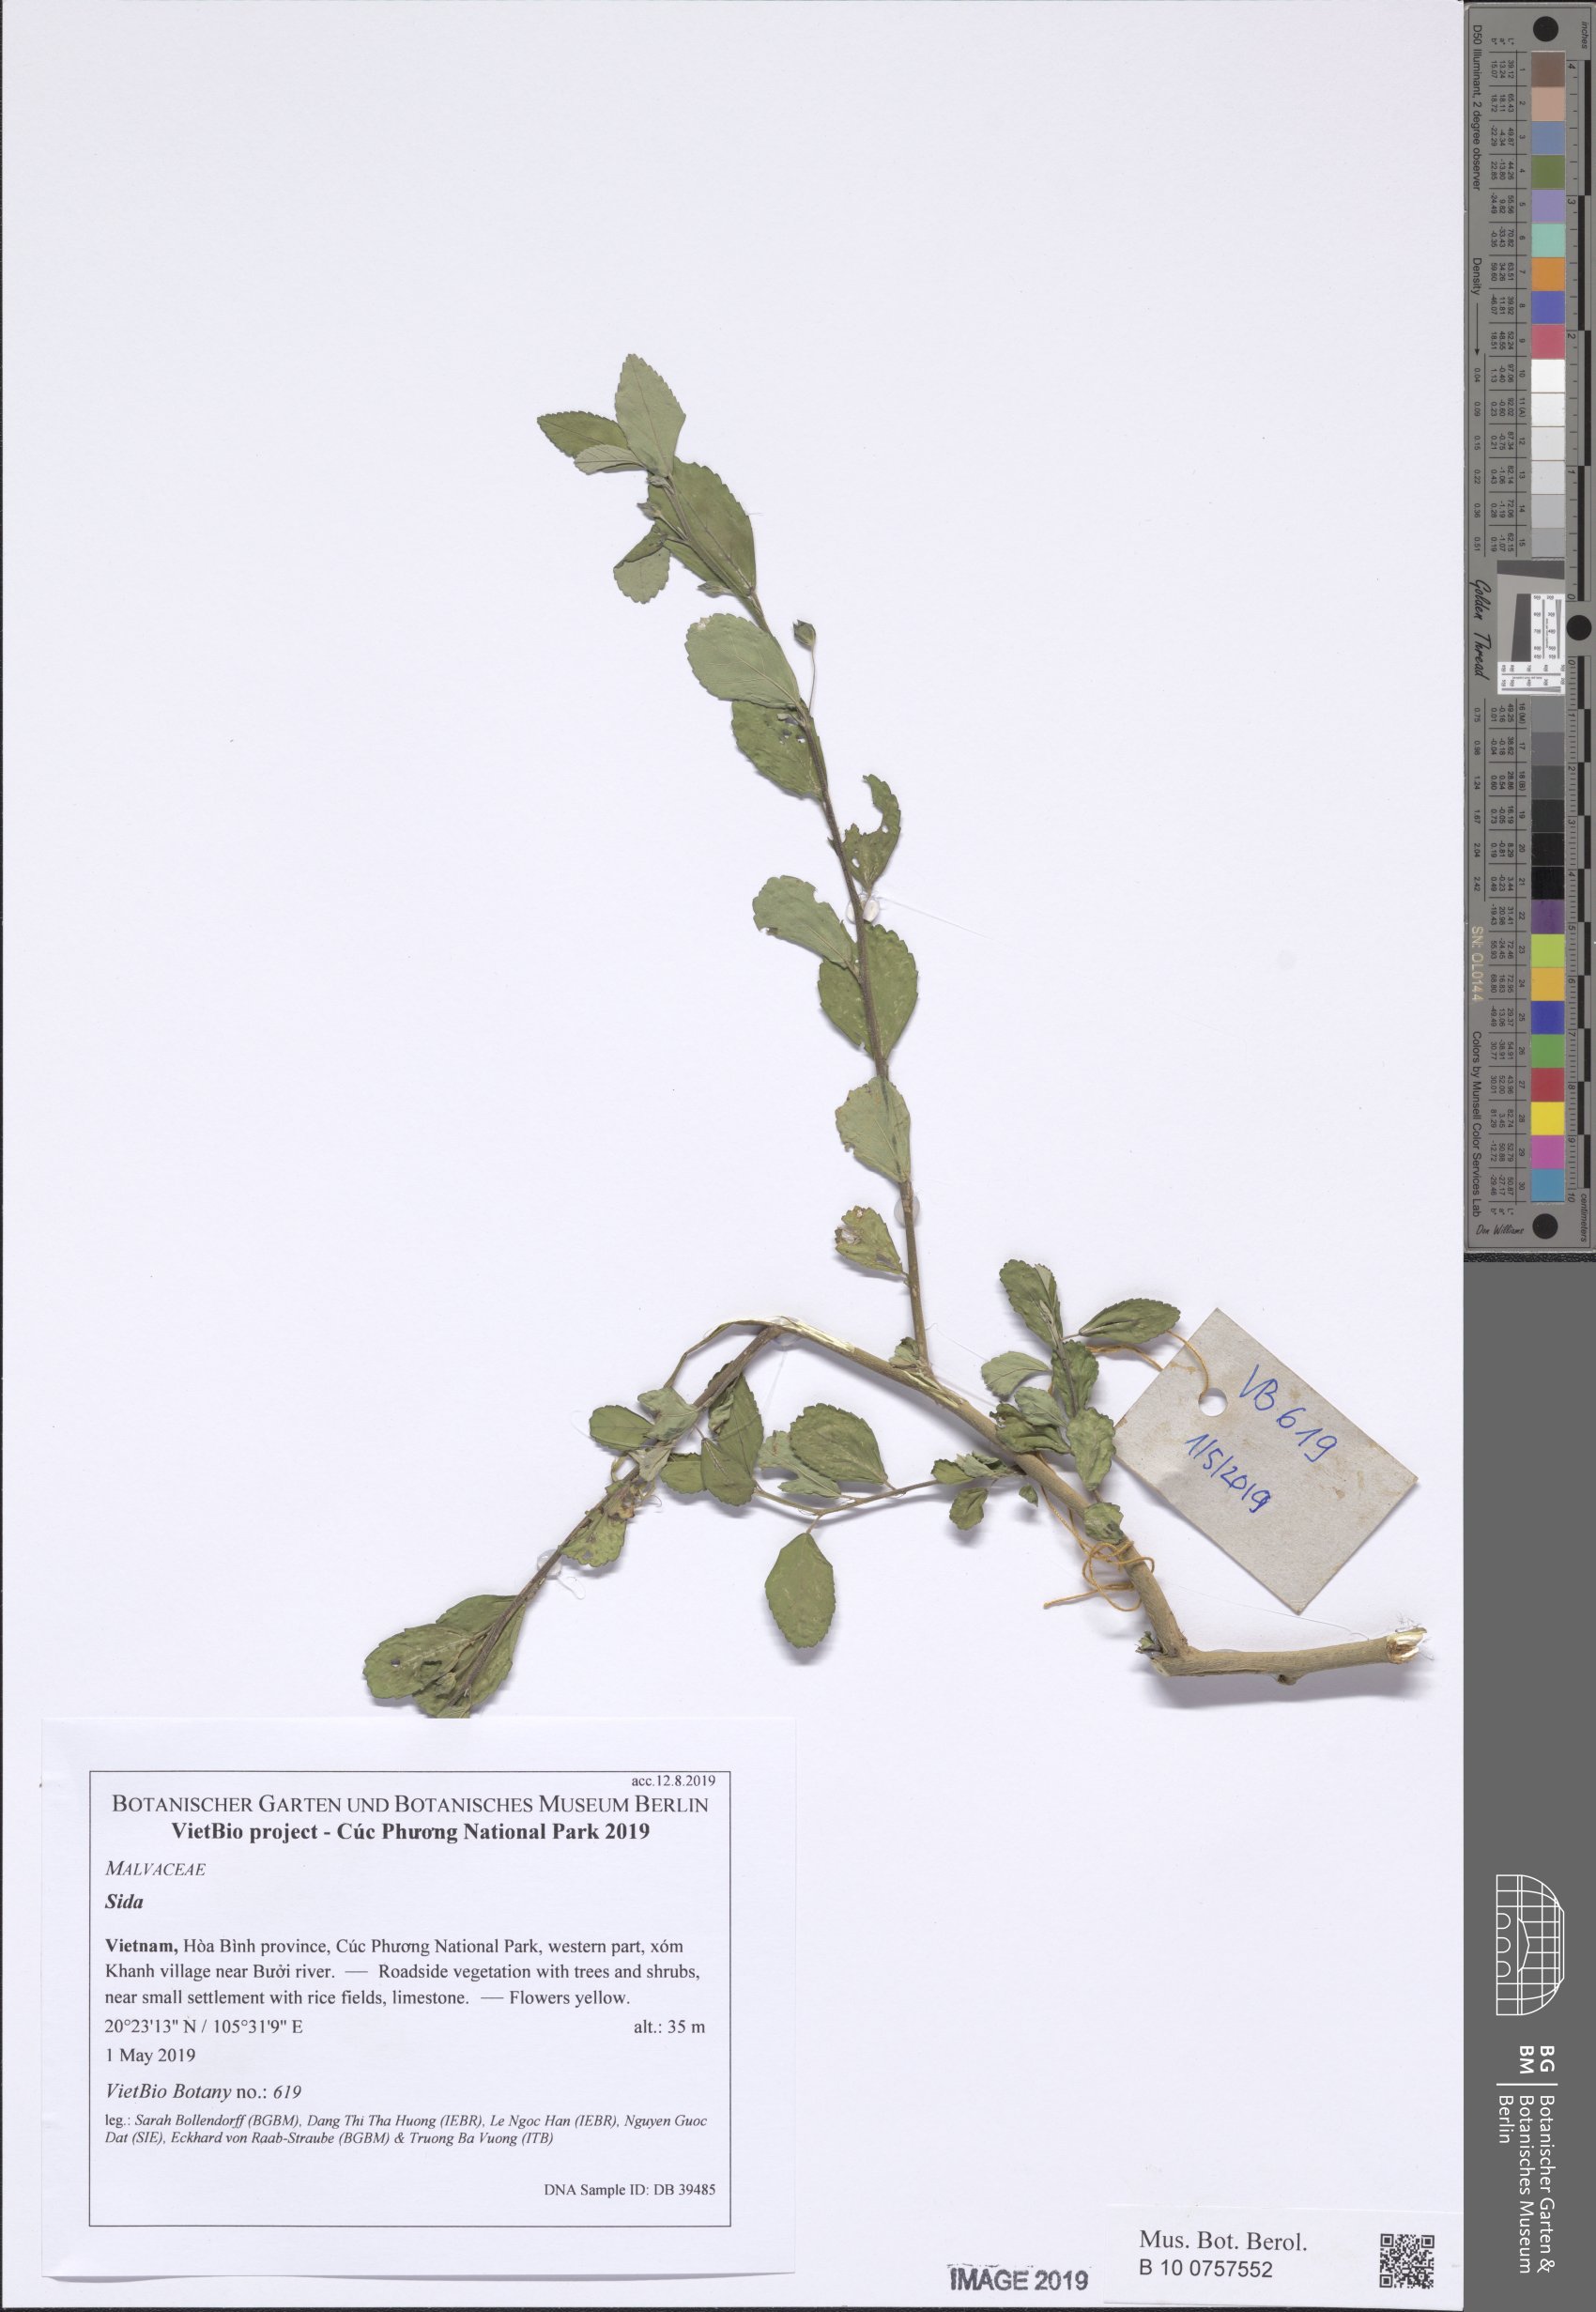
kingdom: Plantae
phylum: Tracheophyta
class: Magnoliopsida
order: Malvales
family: Malvaceae
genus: Sida
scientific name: Sida rhombifolia
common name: Queensland-hemp
